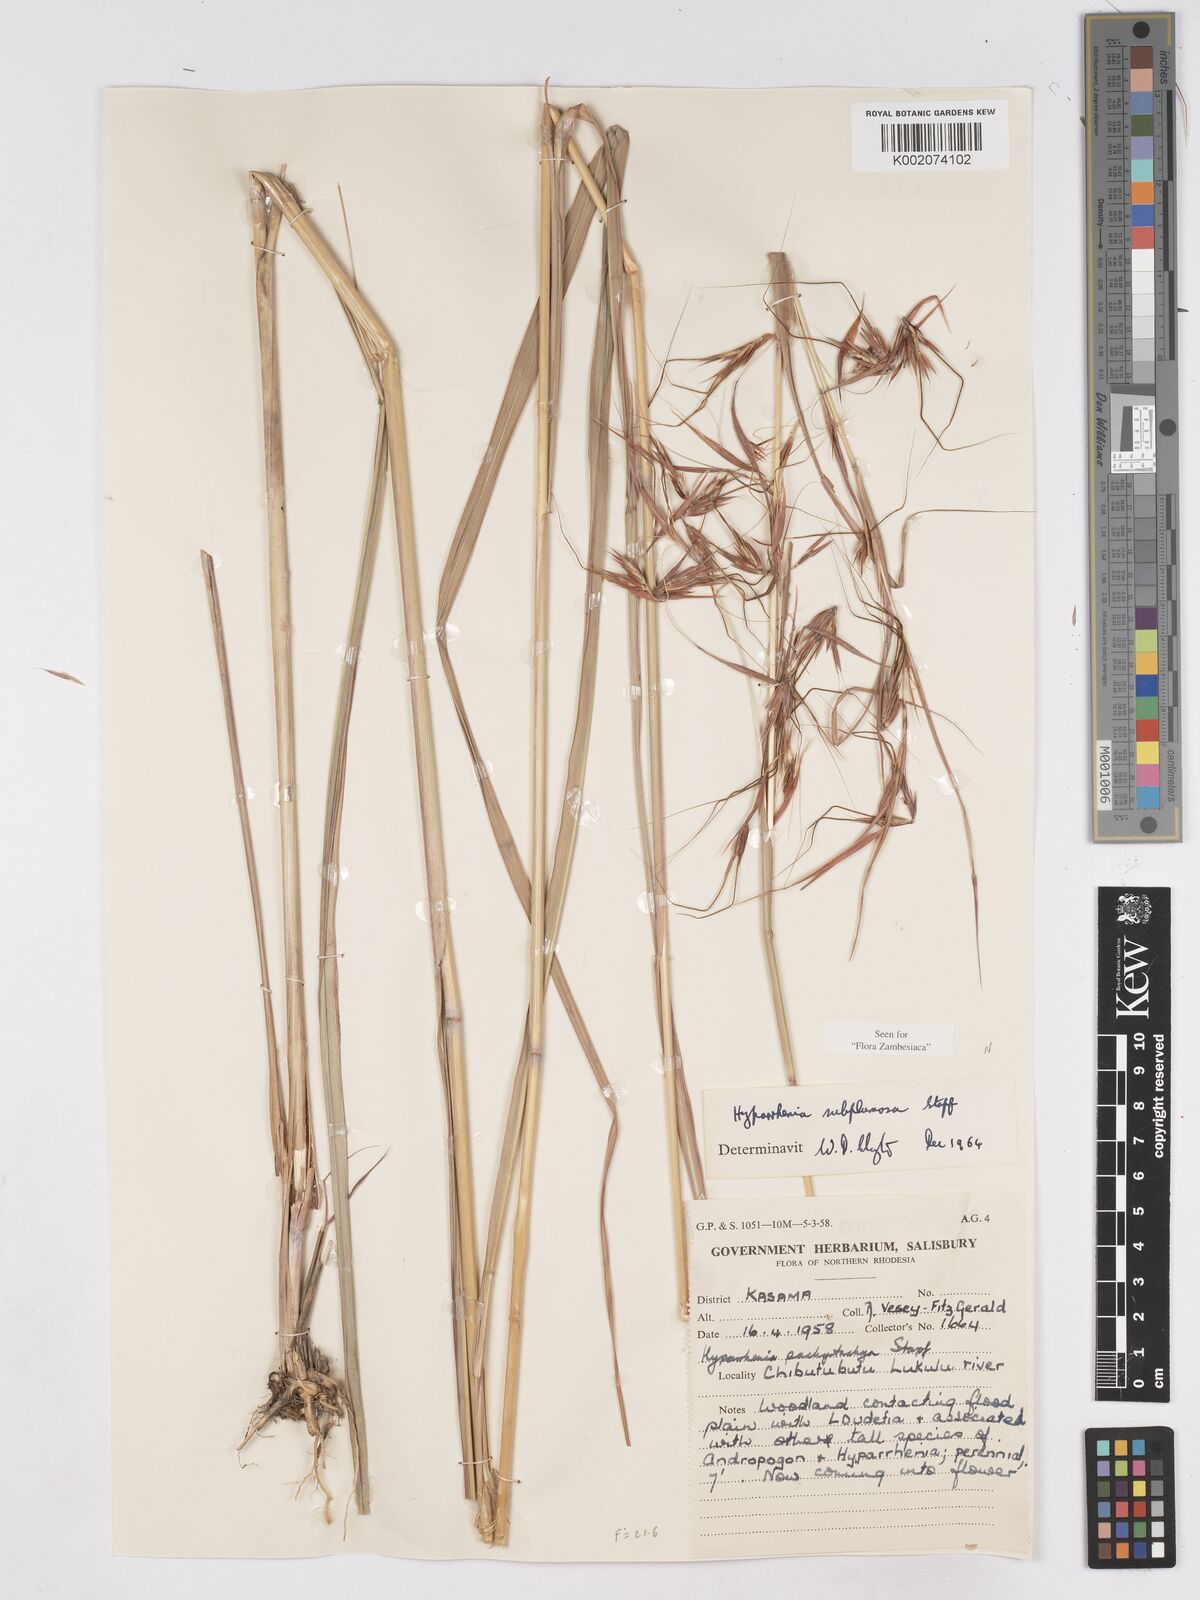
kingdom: Plantae
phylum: Tracheophyta
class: Liliopsida
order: Poales
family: Poaceae
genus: Hyparrhenia
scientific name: Hyparrhenia subplumosa
